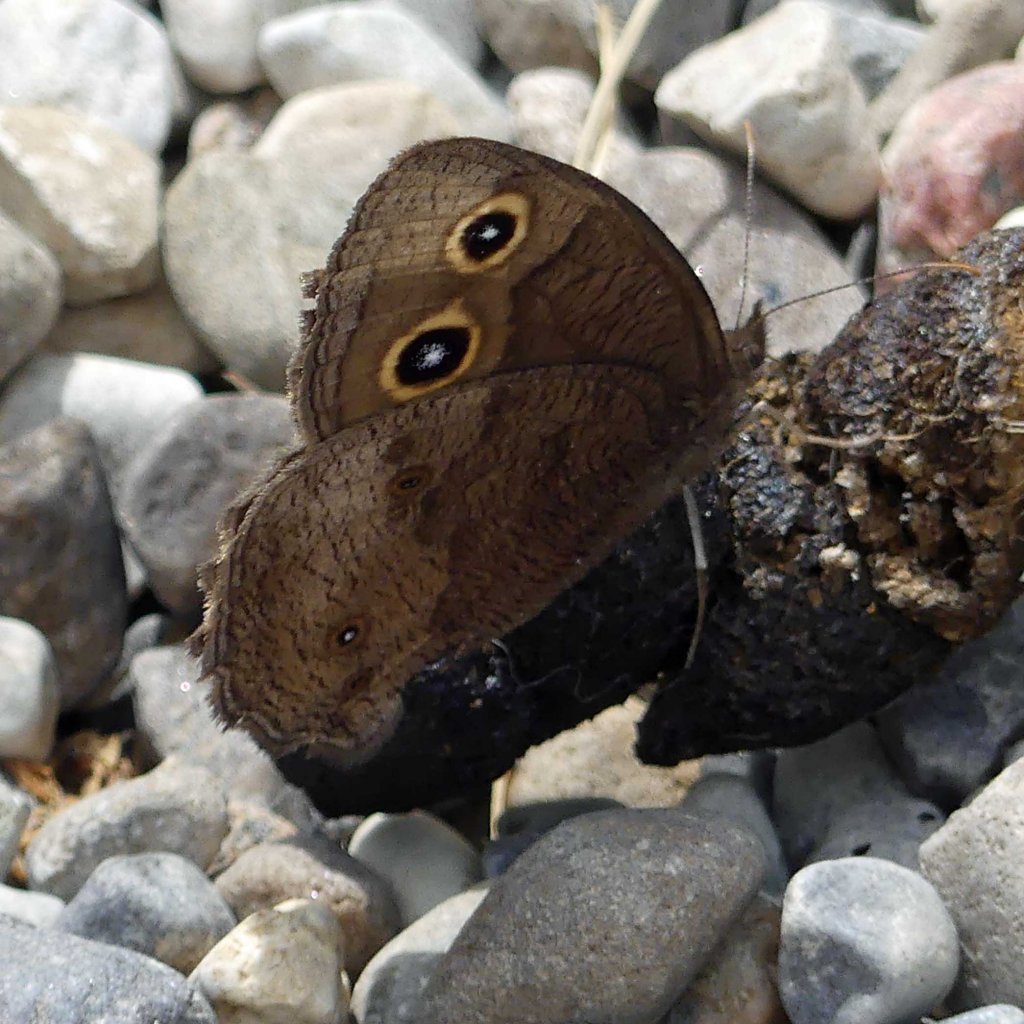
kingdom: Animalia
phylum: Arthropoda
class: Insecta
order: Lepidoptera
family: Nymphalidae
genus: Cercyonis
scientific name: Cercyonis pegala
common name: Common Wood-Nymph
